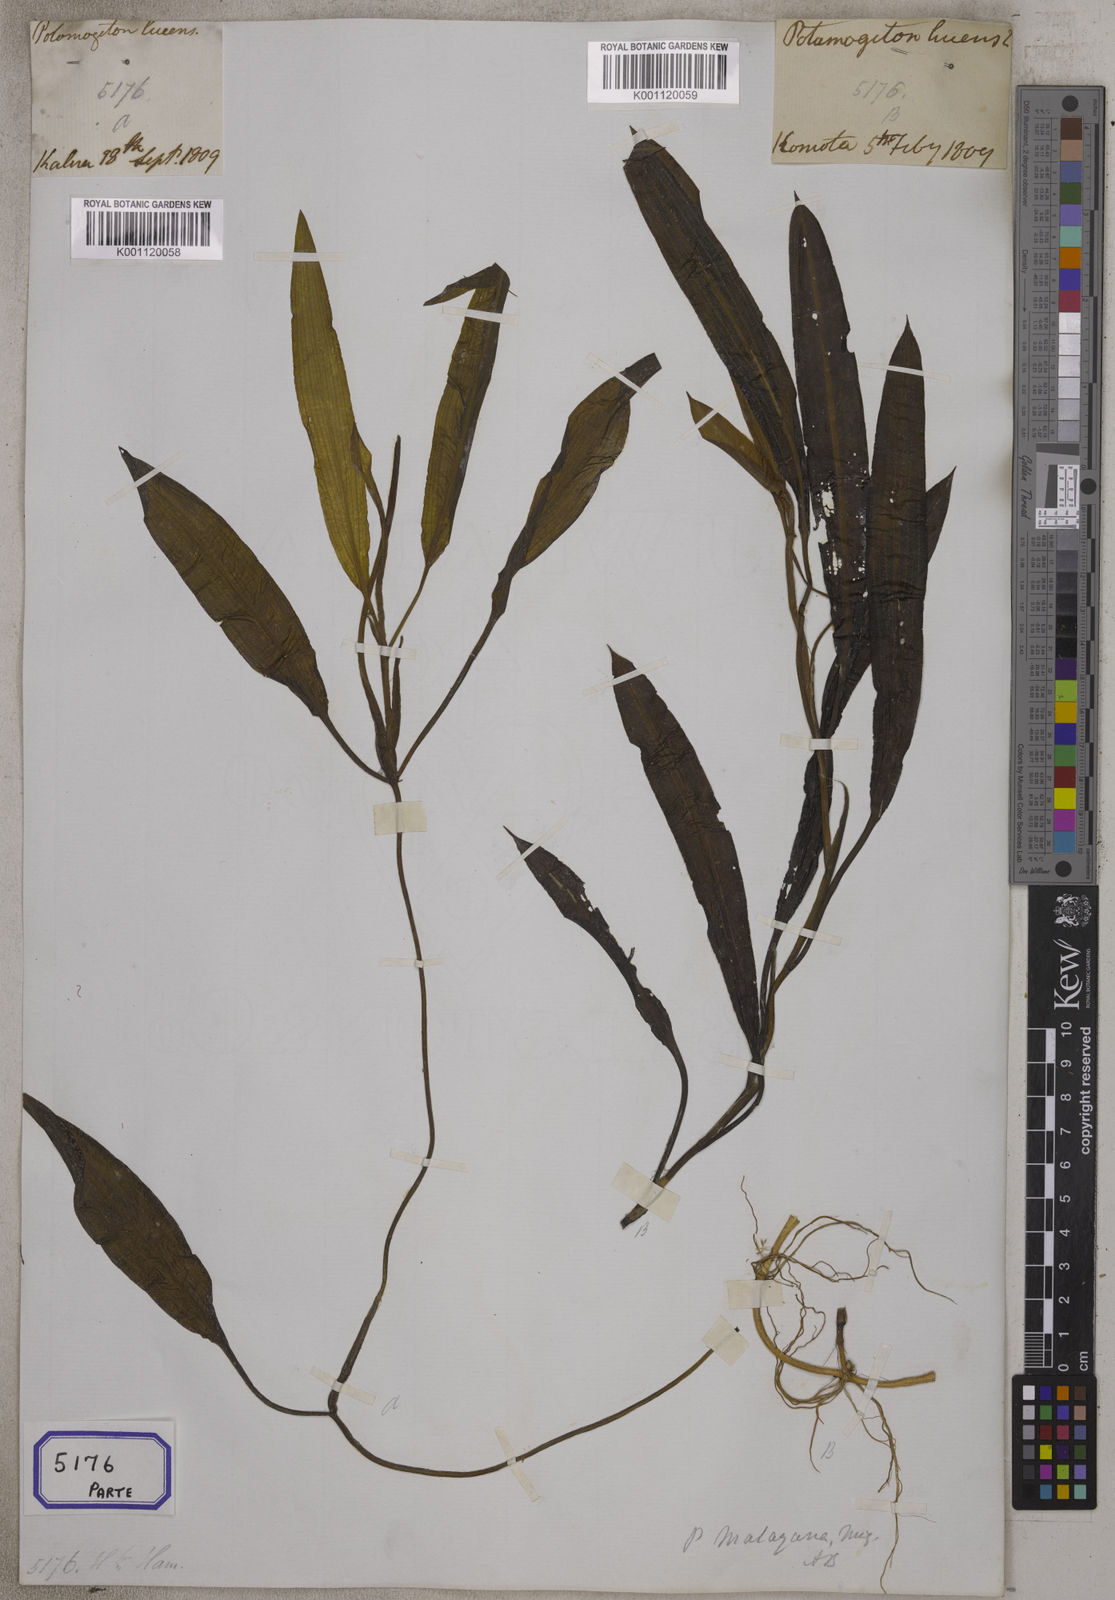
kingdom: Plantae
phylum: Tracheophyta
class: Liliopsida
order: Alismatales
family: Potamogetonaceae
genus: Potamogeton
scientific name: Potamogeton lucens
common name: Shining pondweed
